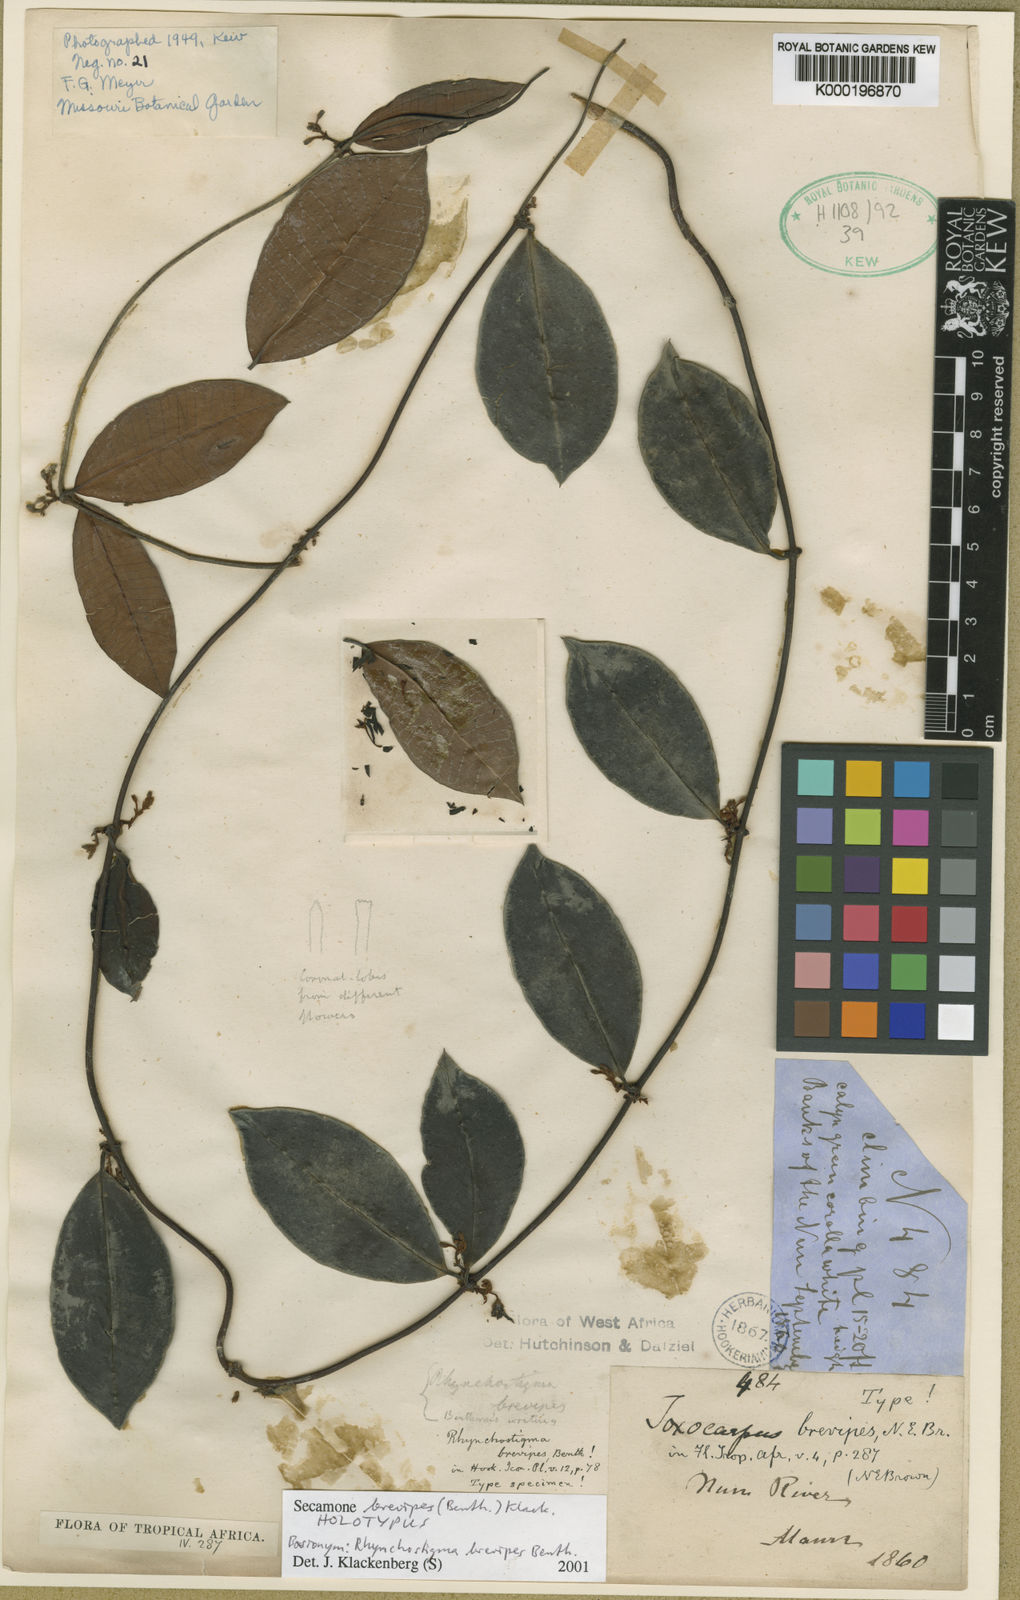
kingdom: Plantae
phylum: Tracheophyta
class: Magnoliopsida
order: Gentianales
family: Apocynaceae
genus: Secamone
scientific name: Secamone brevipes
